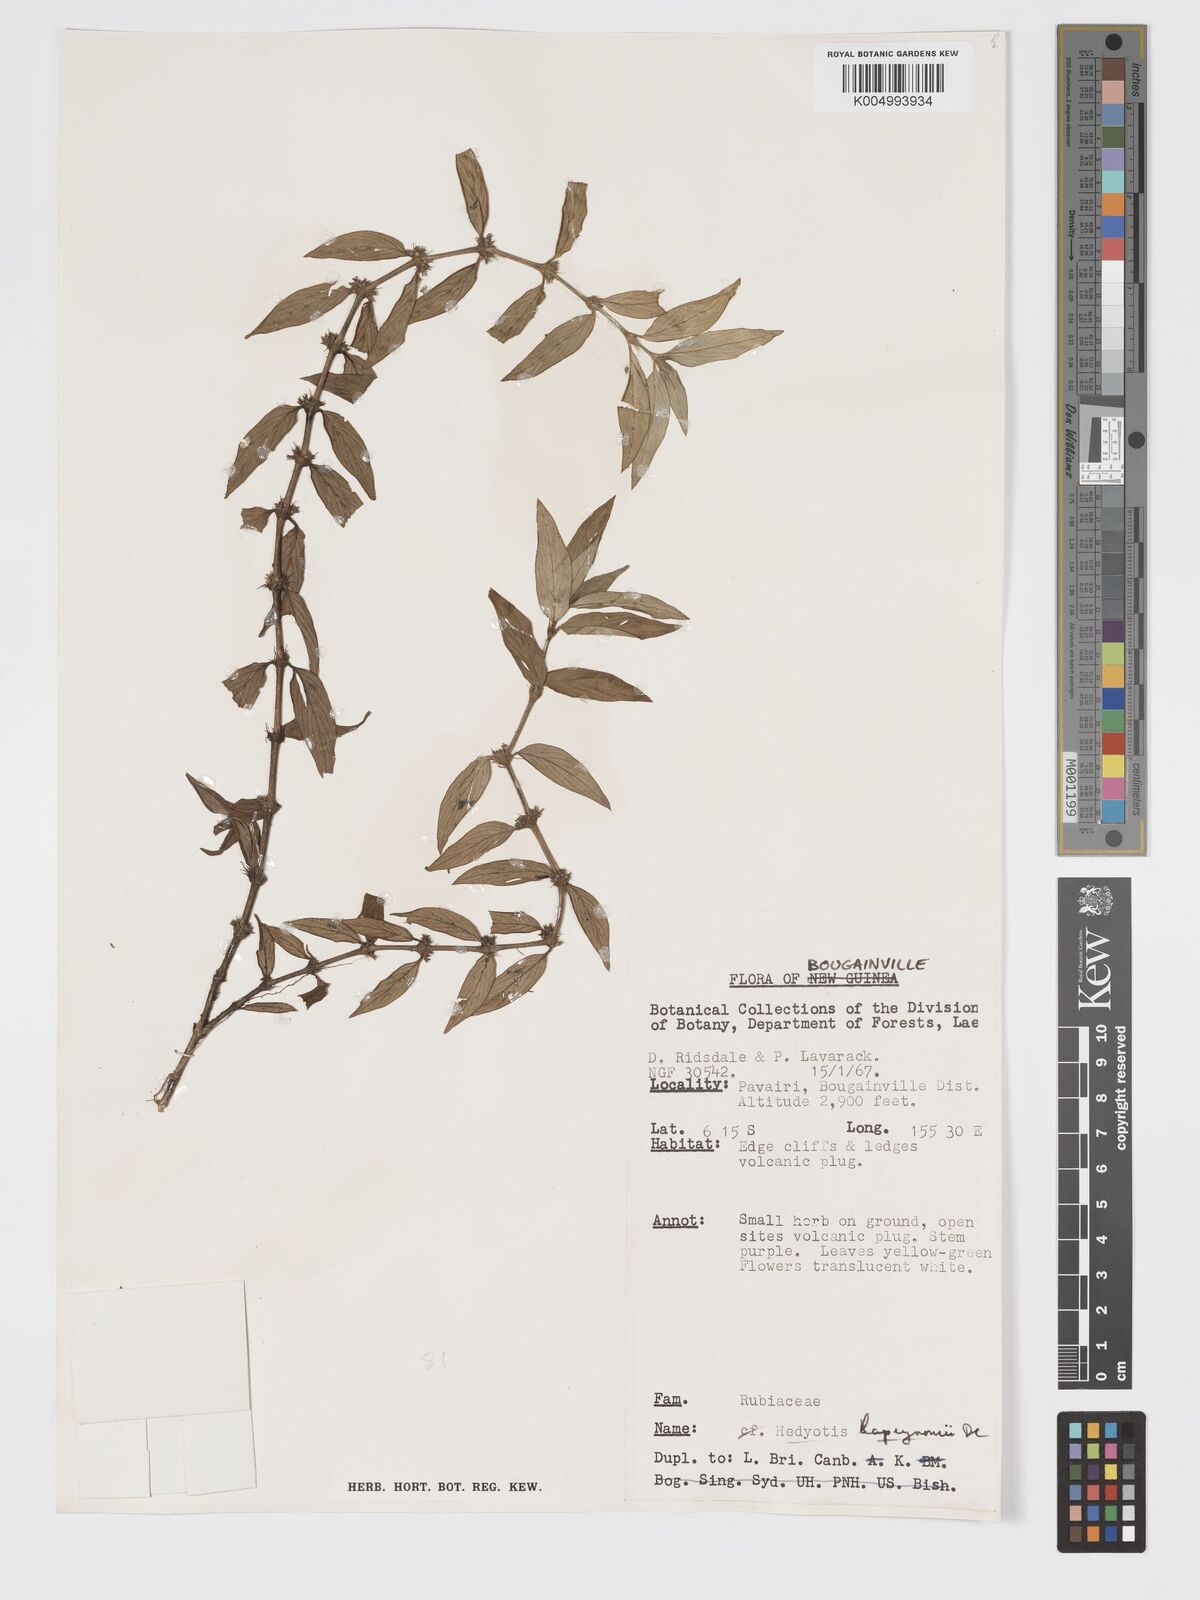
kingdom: Plantae
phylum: Tracheophyta
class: Magnoliopsida
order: Gentianales
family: Rubiaceae
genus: Exallage
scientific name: Exallage lapeyrousei
